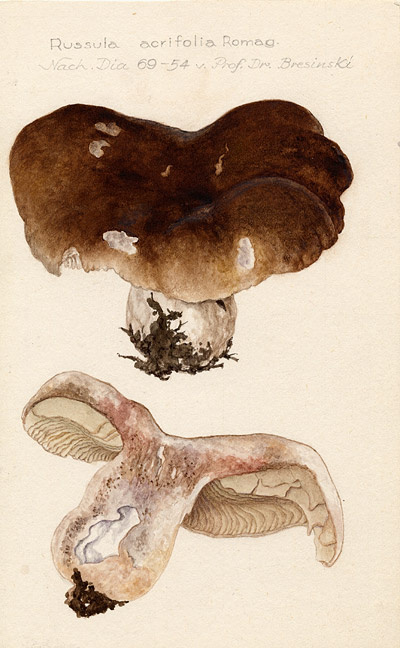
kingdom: Fungi
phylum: Basidiomycota
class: Agaricomycetes
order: Russulales
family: Russulaceae
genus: Russula
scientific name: Russula acrifolia
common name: Hotlips brittlegill
